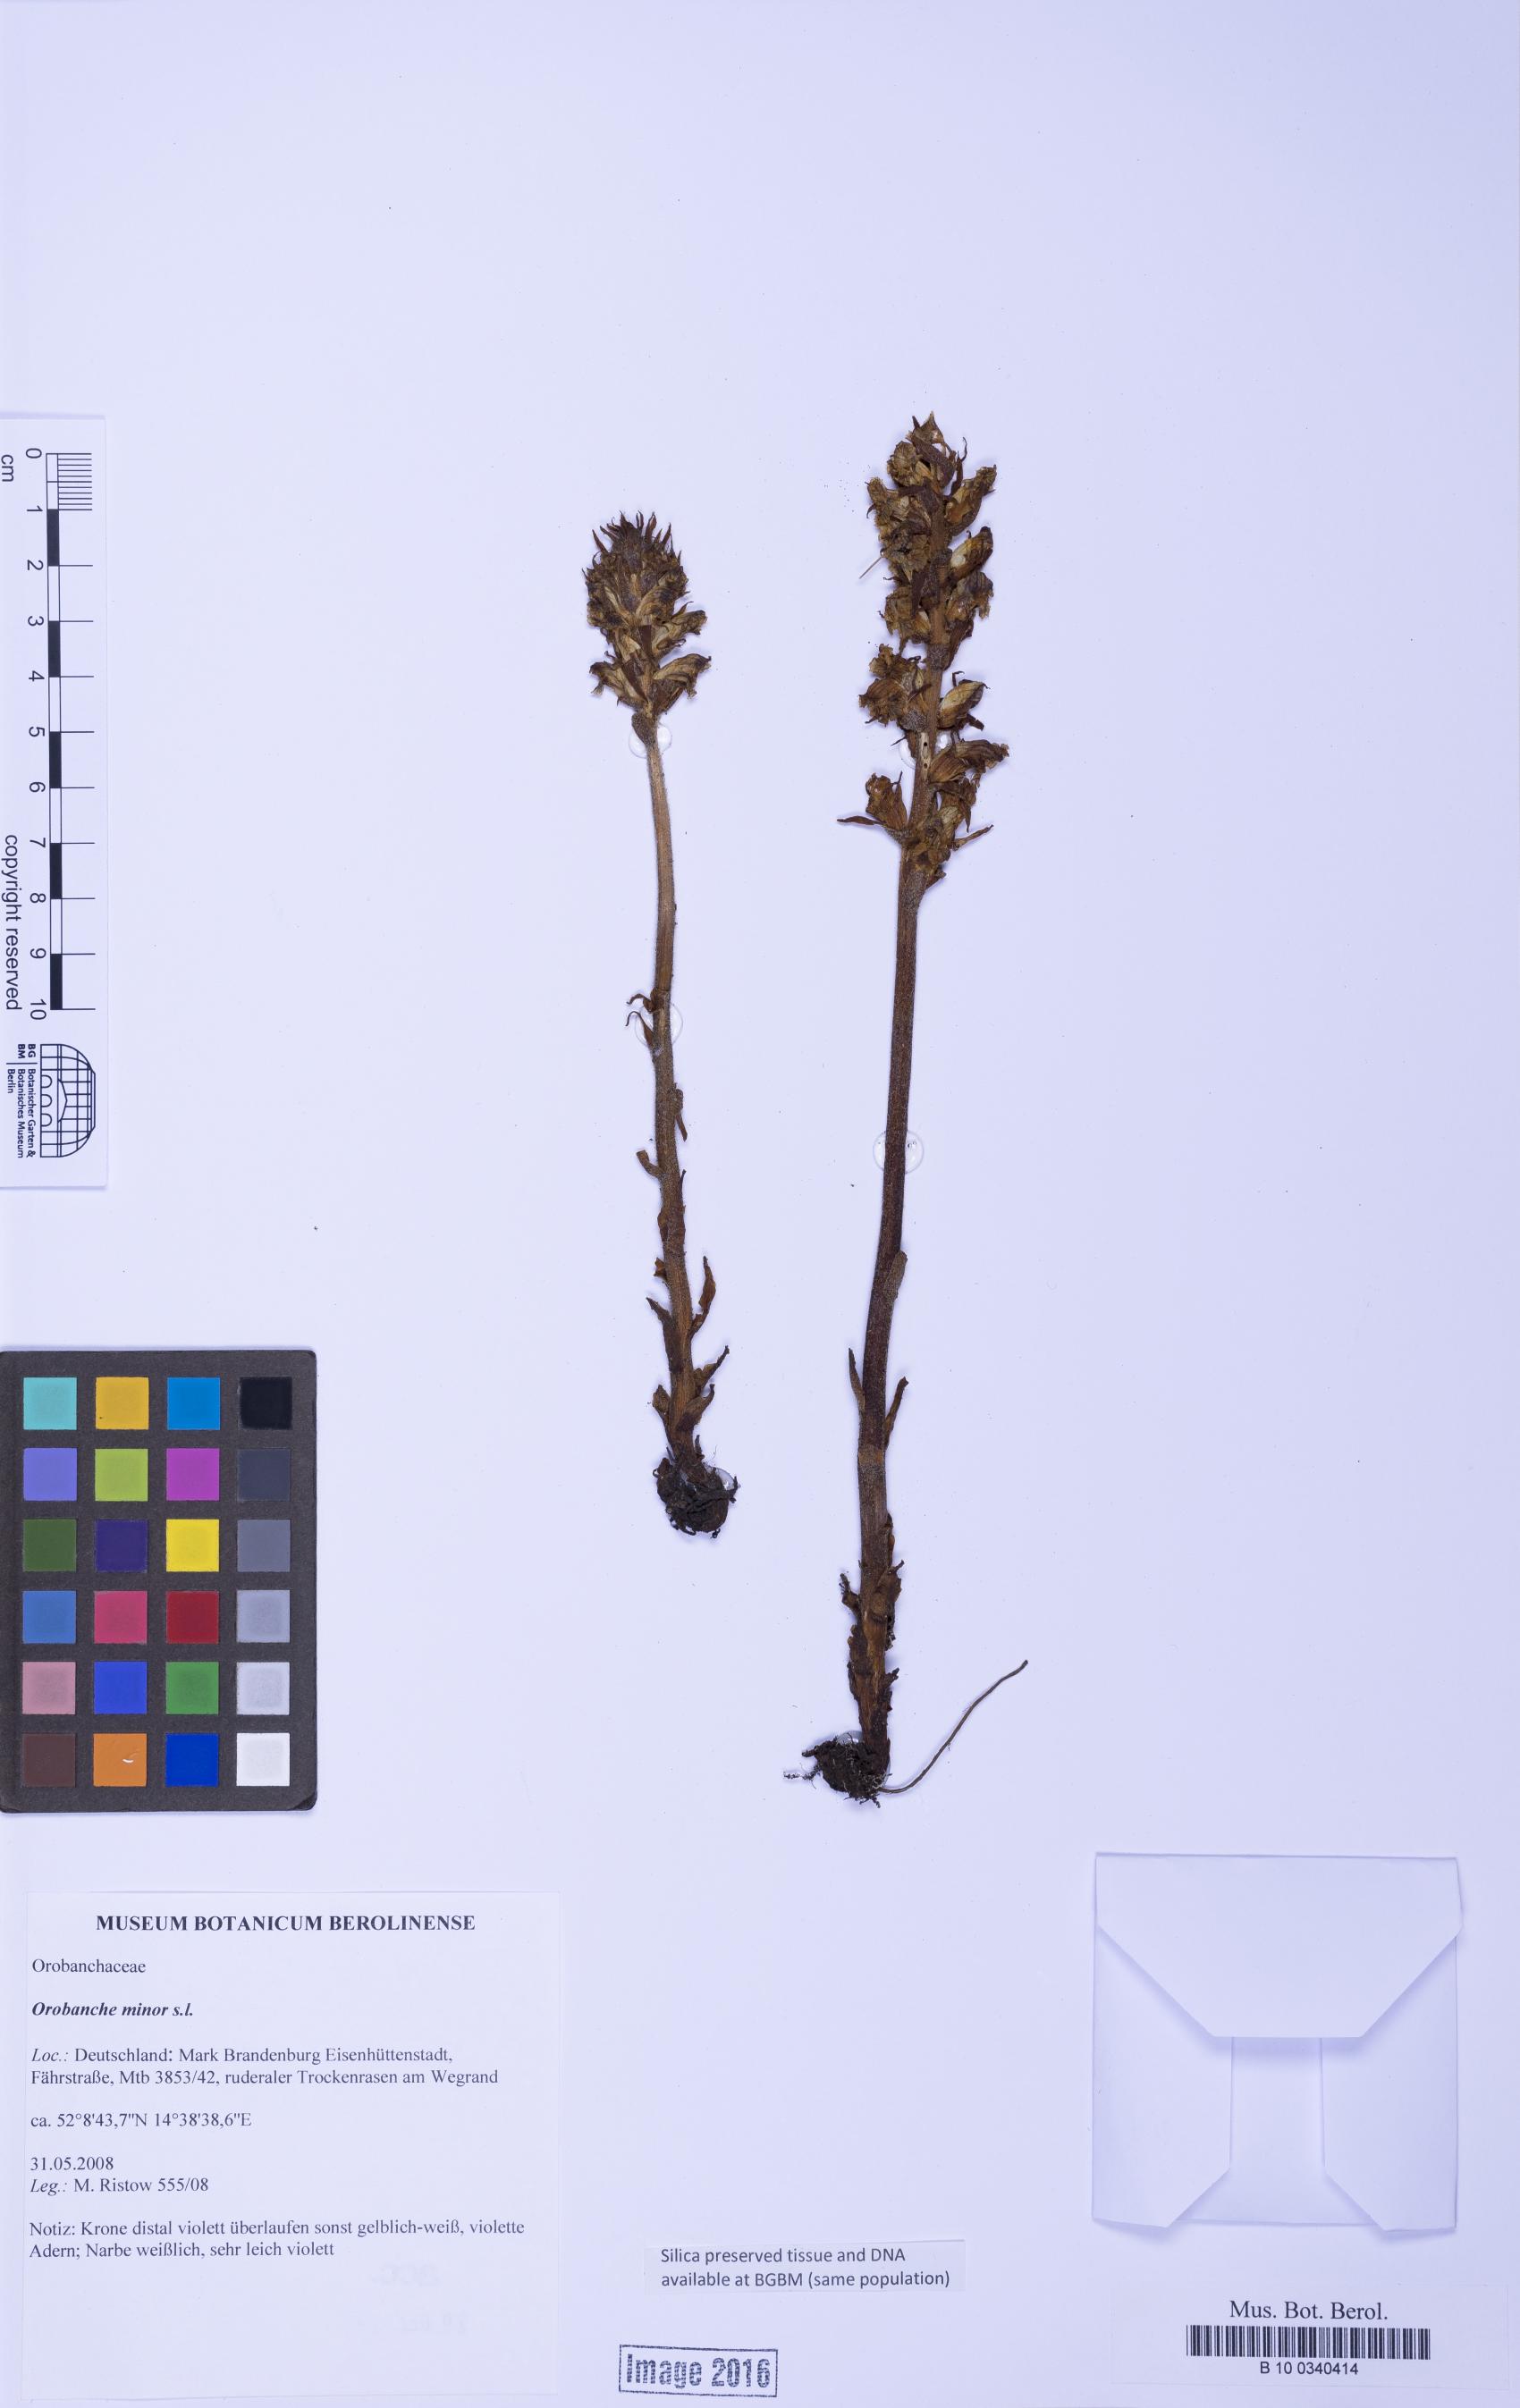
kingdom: Plantae
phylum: Tracheophyta
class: Magnoliopsida
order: Lamiales
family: Orobanchaceae
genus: Orobanche
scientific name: Orobanche
